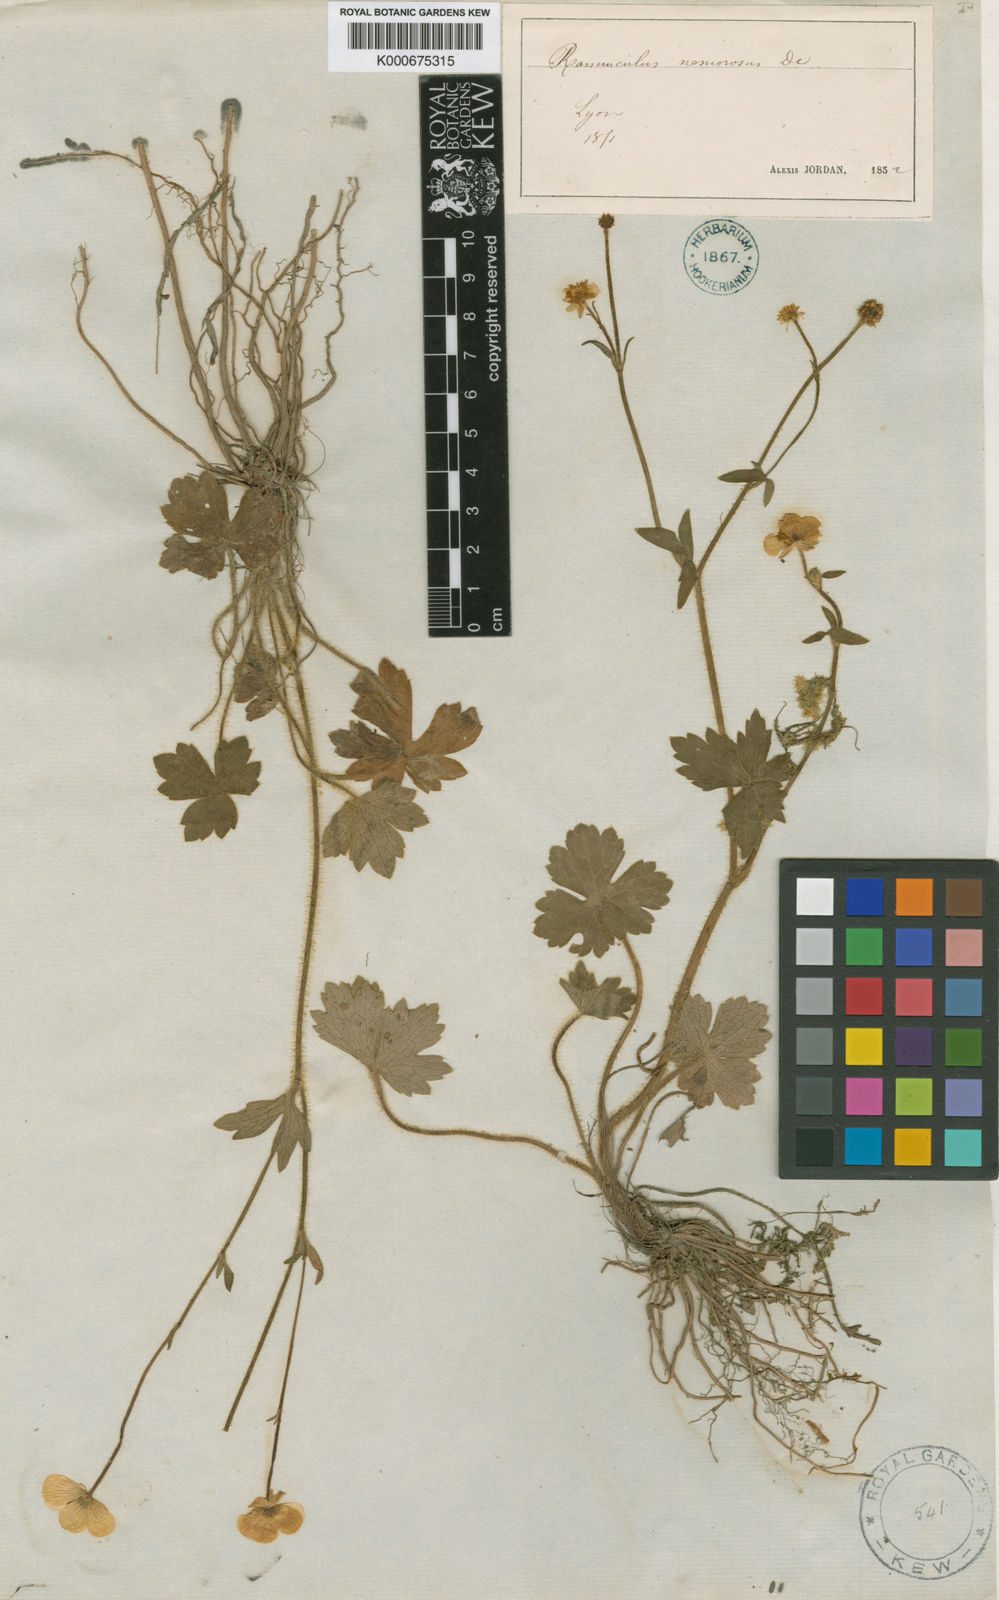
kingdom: Plantae
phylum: Tracheophyta
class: Magnoliopsida
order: Ranunculales
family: Ranunculaceae
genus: Ranunculus
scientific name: Ranunculus polyanthemos
